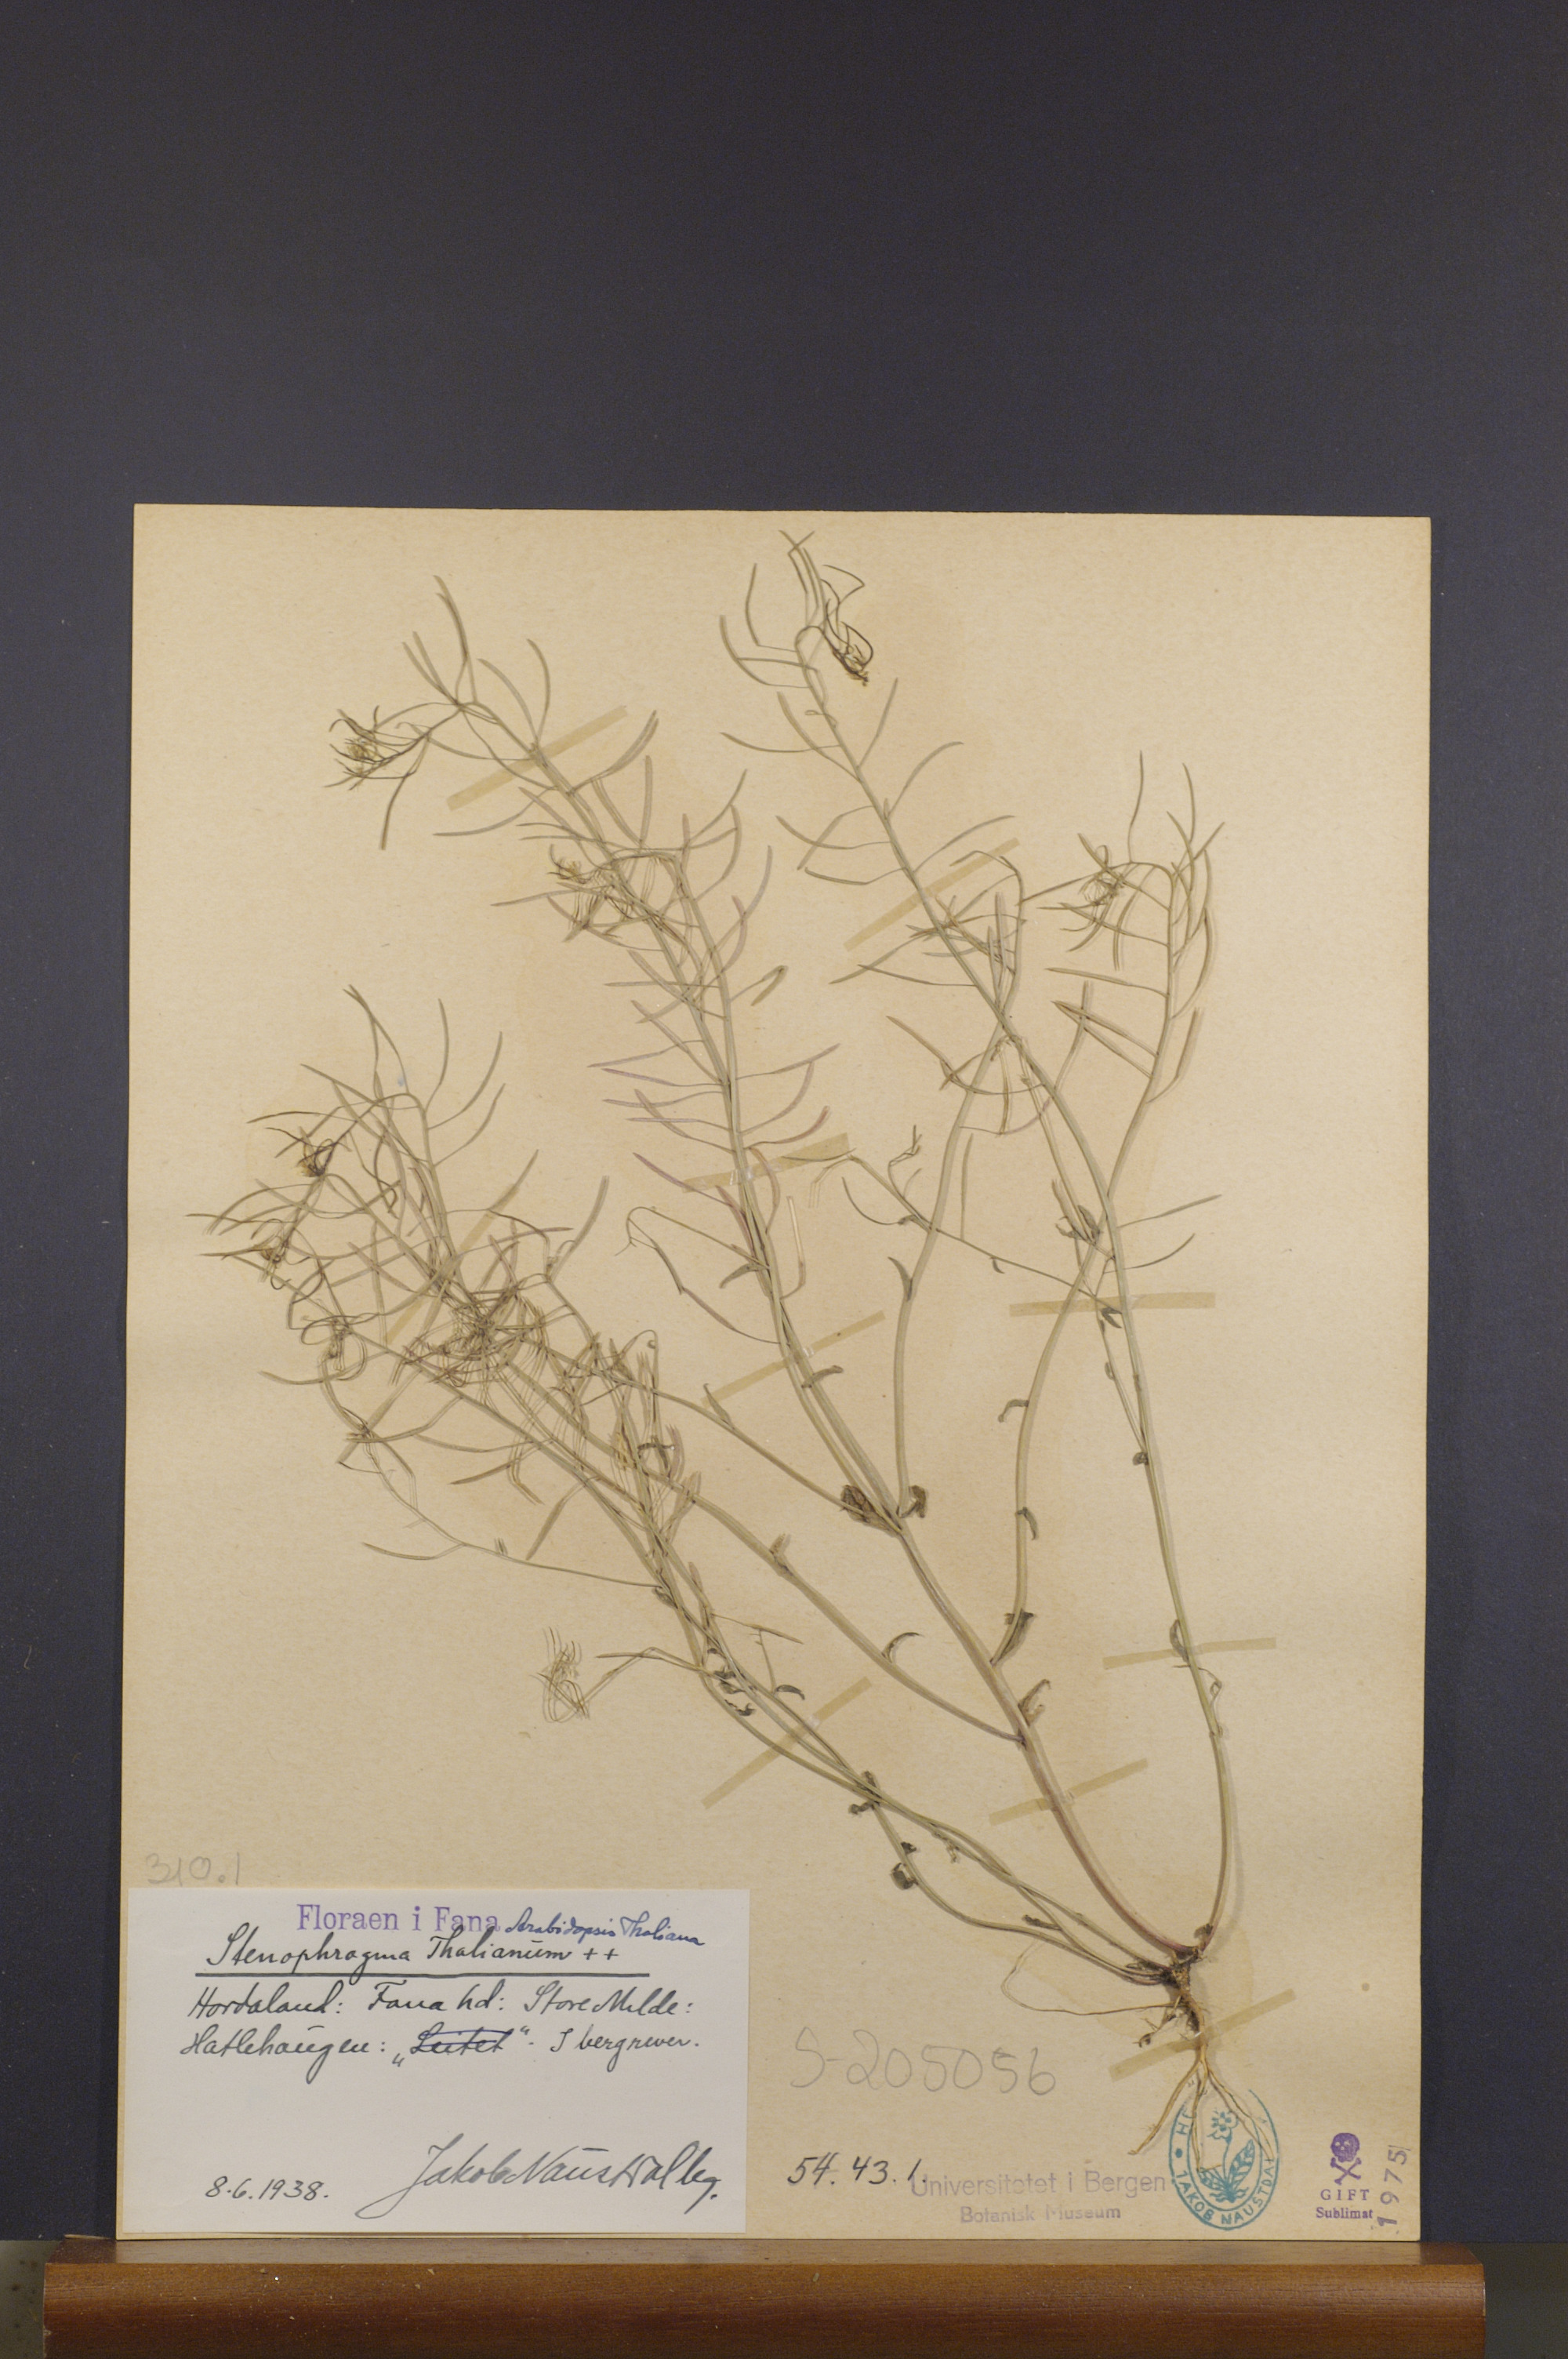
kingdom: Plantae
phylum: Tracheophyta
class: Magnoliopsida
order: Brassicales
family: Brassicaceae
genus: Arabidopsis
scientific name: Arabidopsis thaliana
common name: Thale cress
